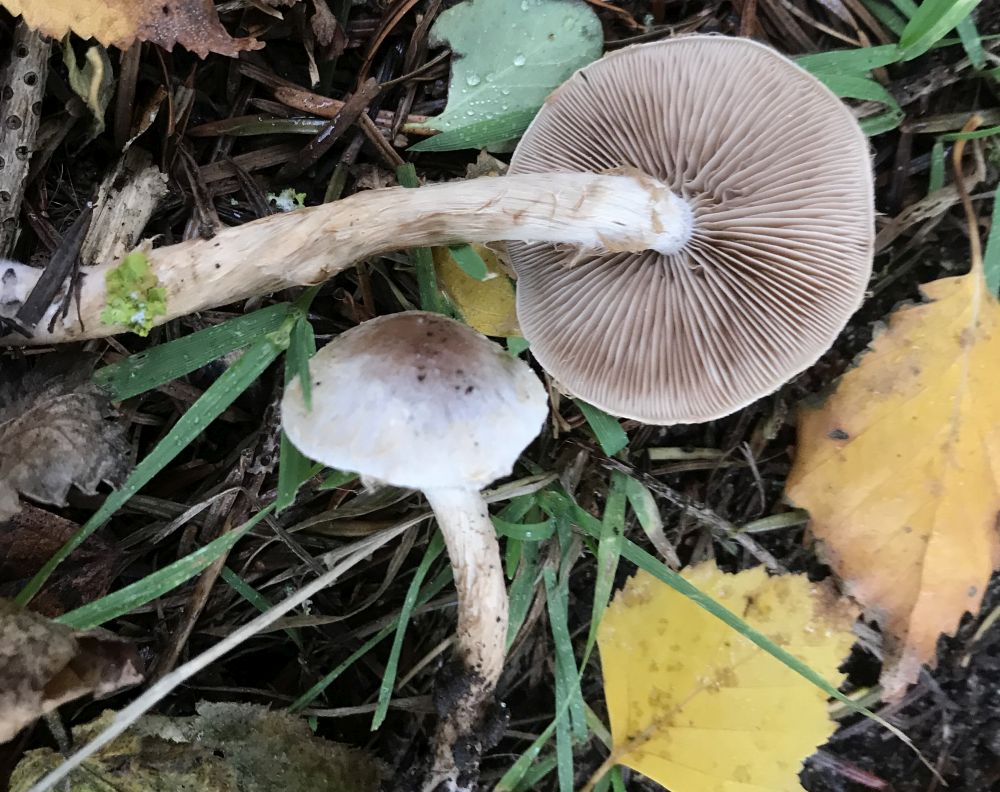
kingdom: Fungi
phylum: Basidiomycota
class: Agaricomycetes
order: Agaricales
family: Hymenogastraceae
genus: Hebeloma
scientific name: Hebeloma
